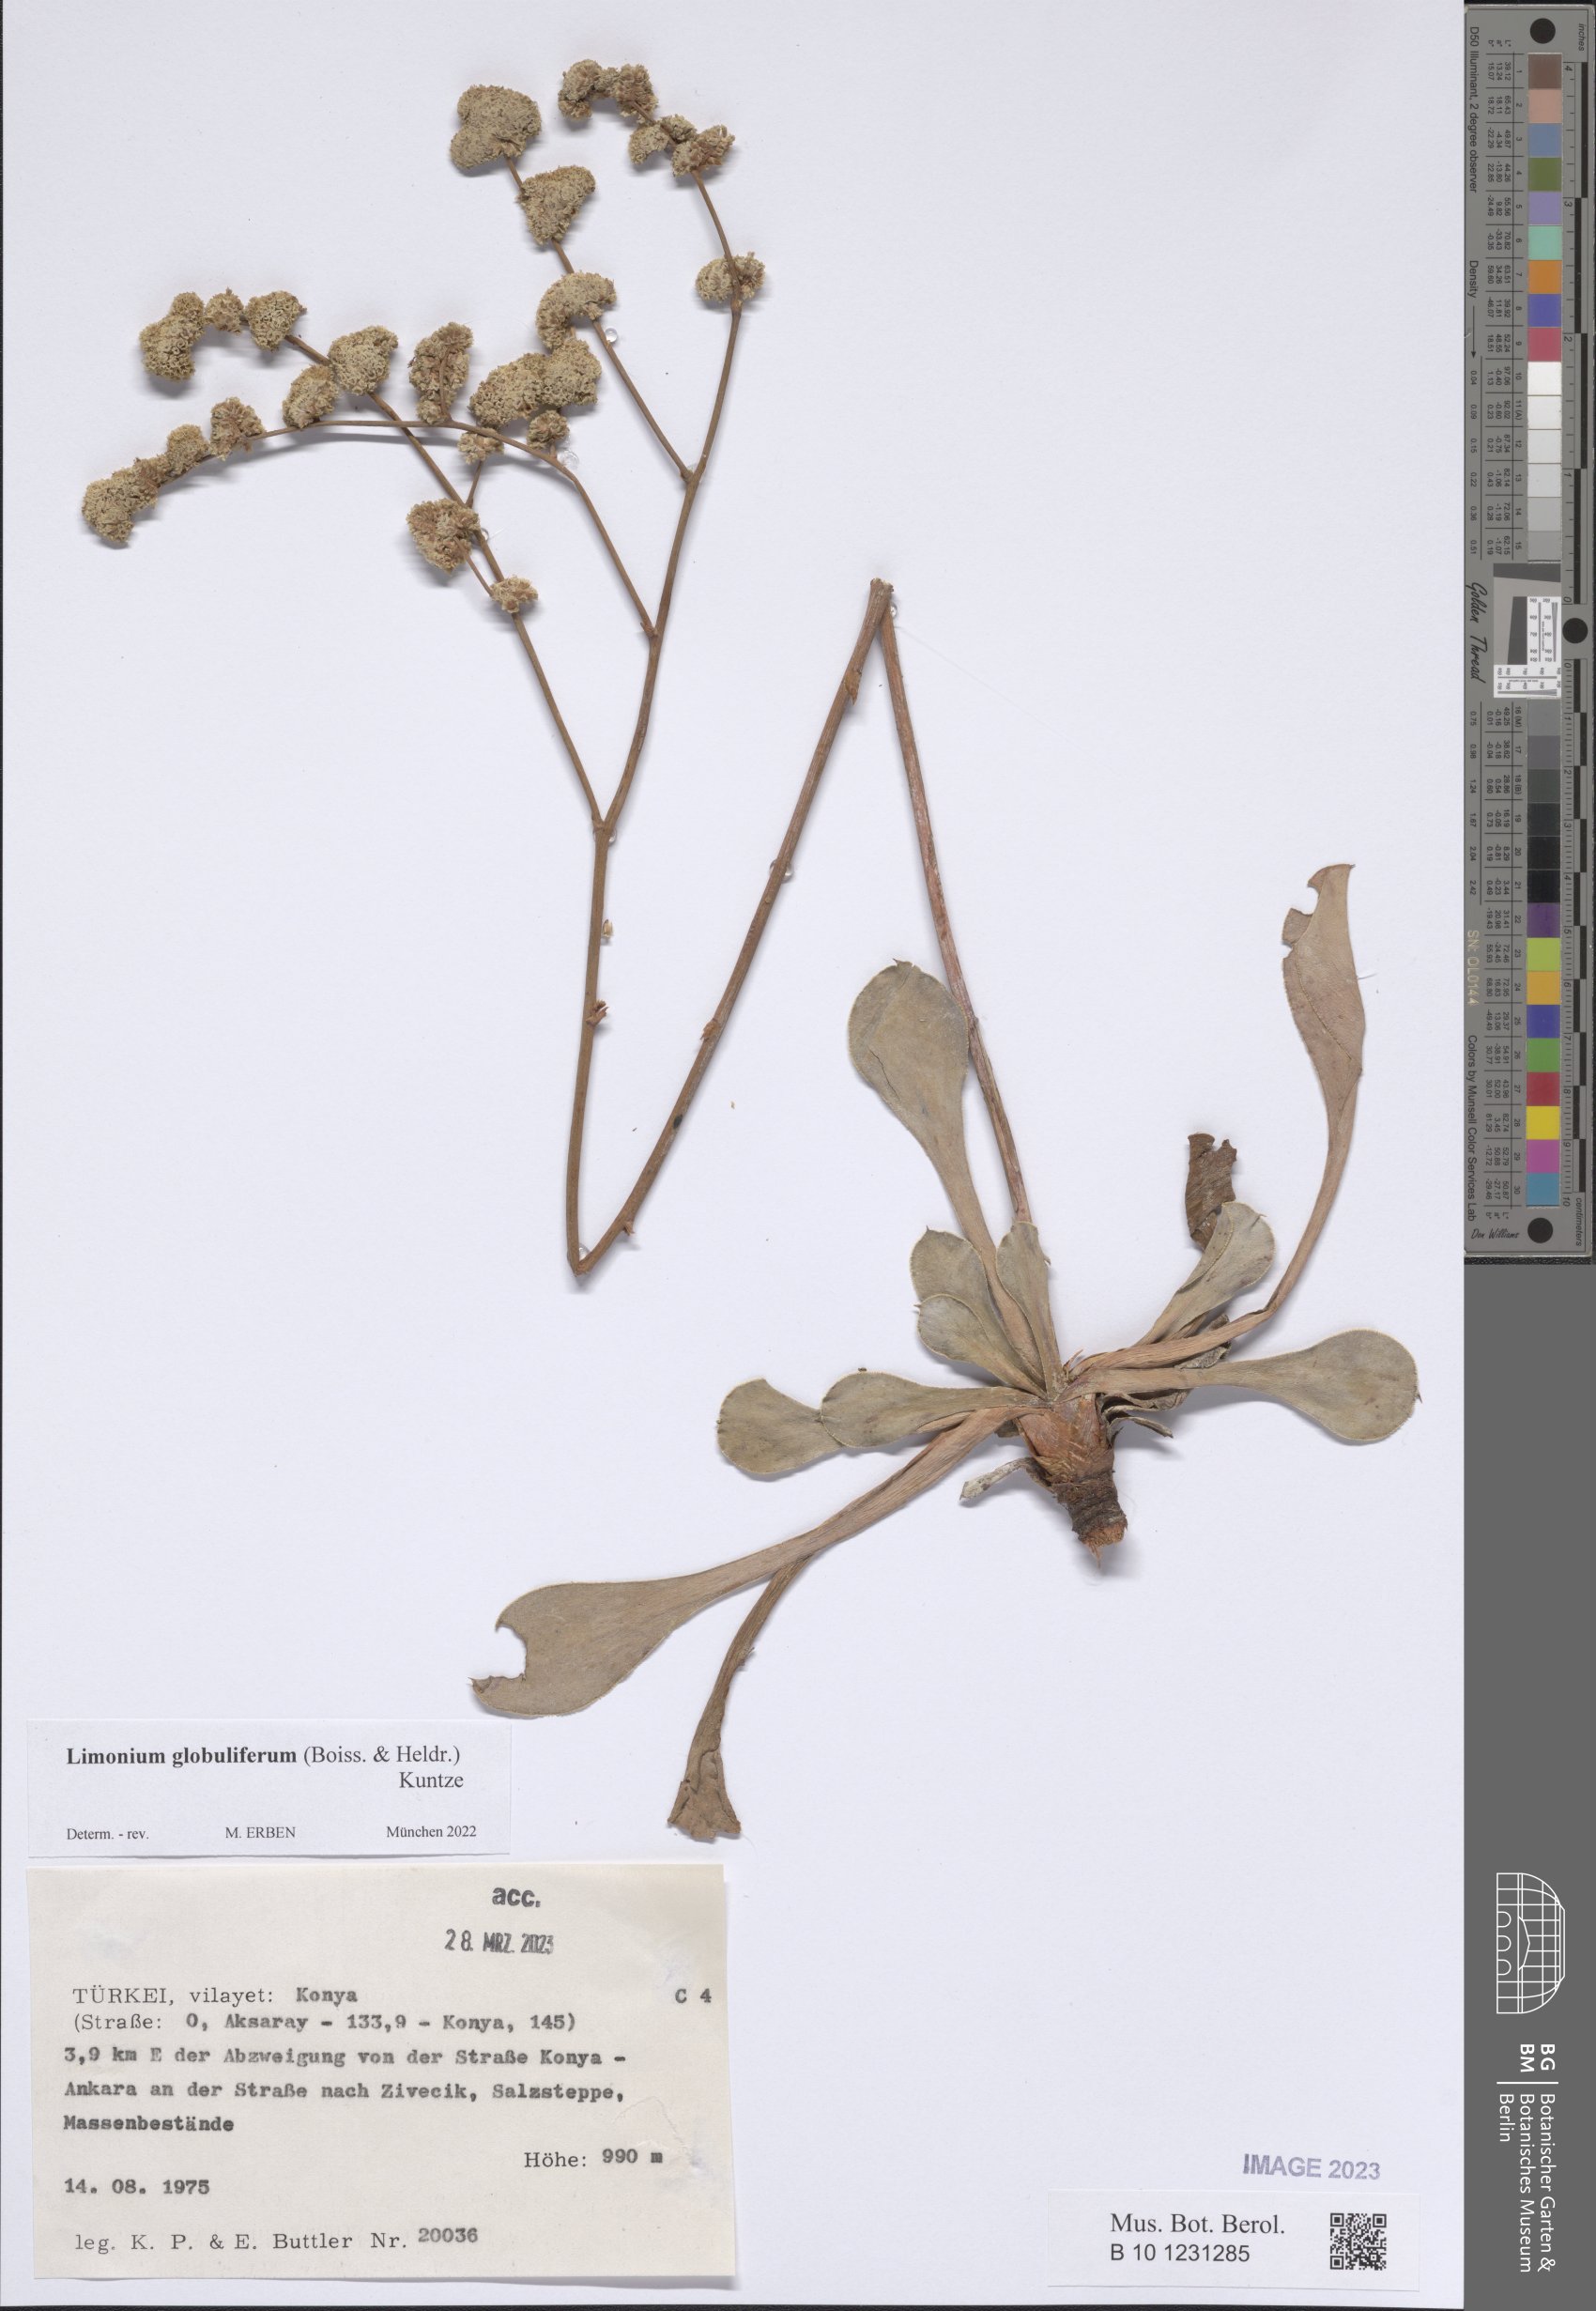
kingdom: Plantae
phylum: Tracheophyta
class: Magnoliopsida
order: Caryophyllales
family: Plumbaginaceae
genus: Limonium
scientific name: Limonium globuliferum
